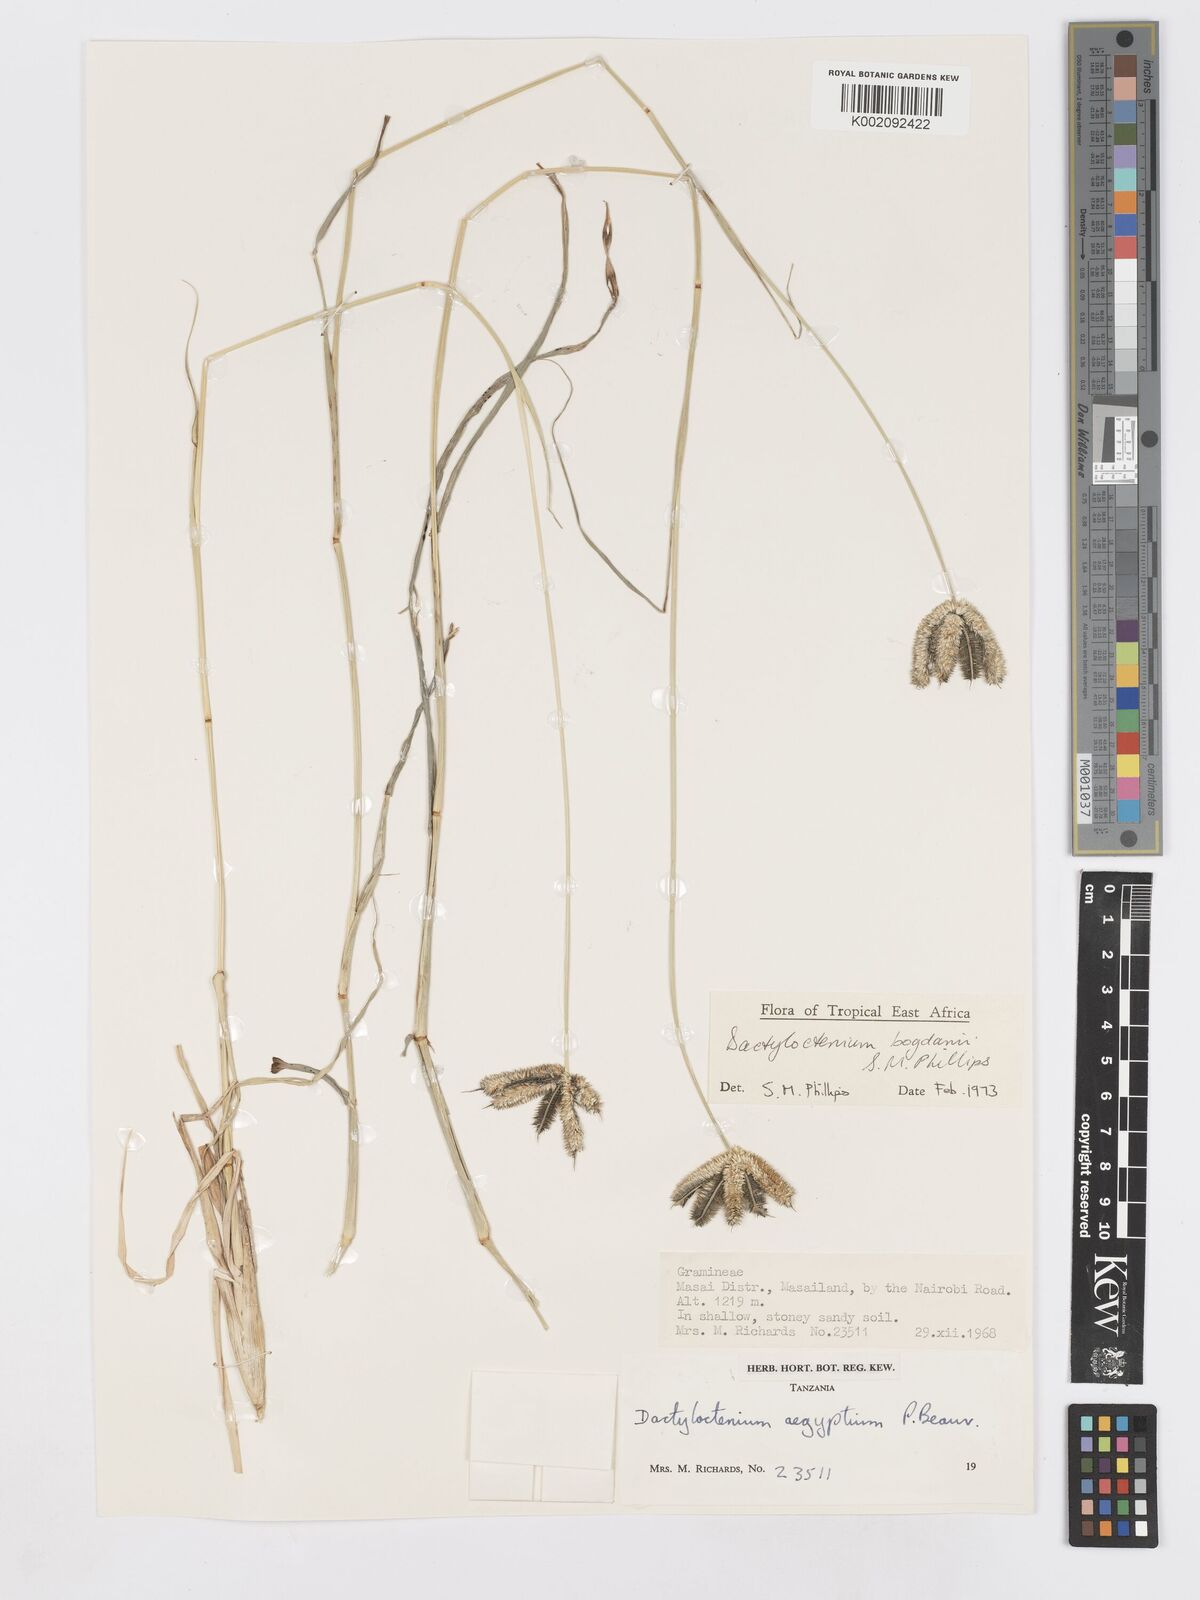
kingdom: Plantae
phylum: Tracheophyta
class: Liliopsida
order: Poales
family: Poaceae
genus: Dactyloctenium
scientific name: Dactyloctenium geminatum
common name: Crowsfoot grass
